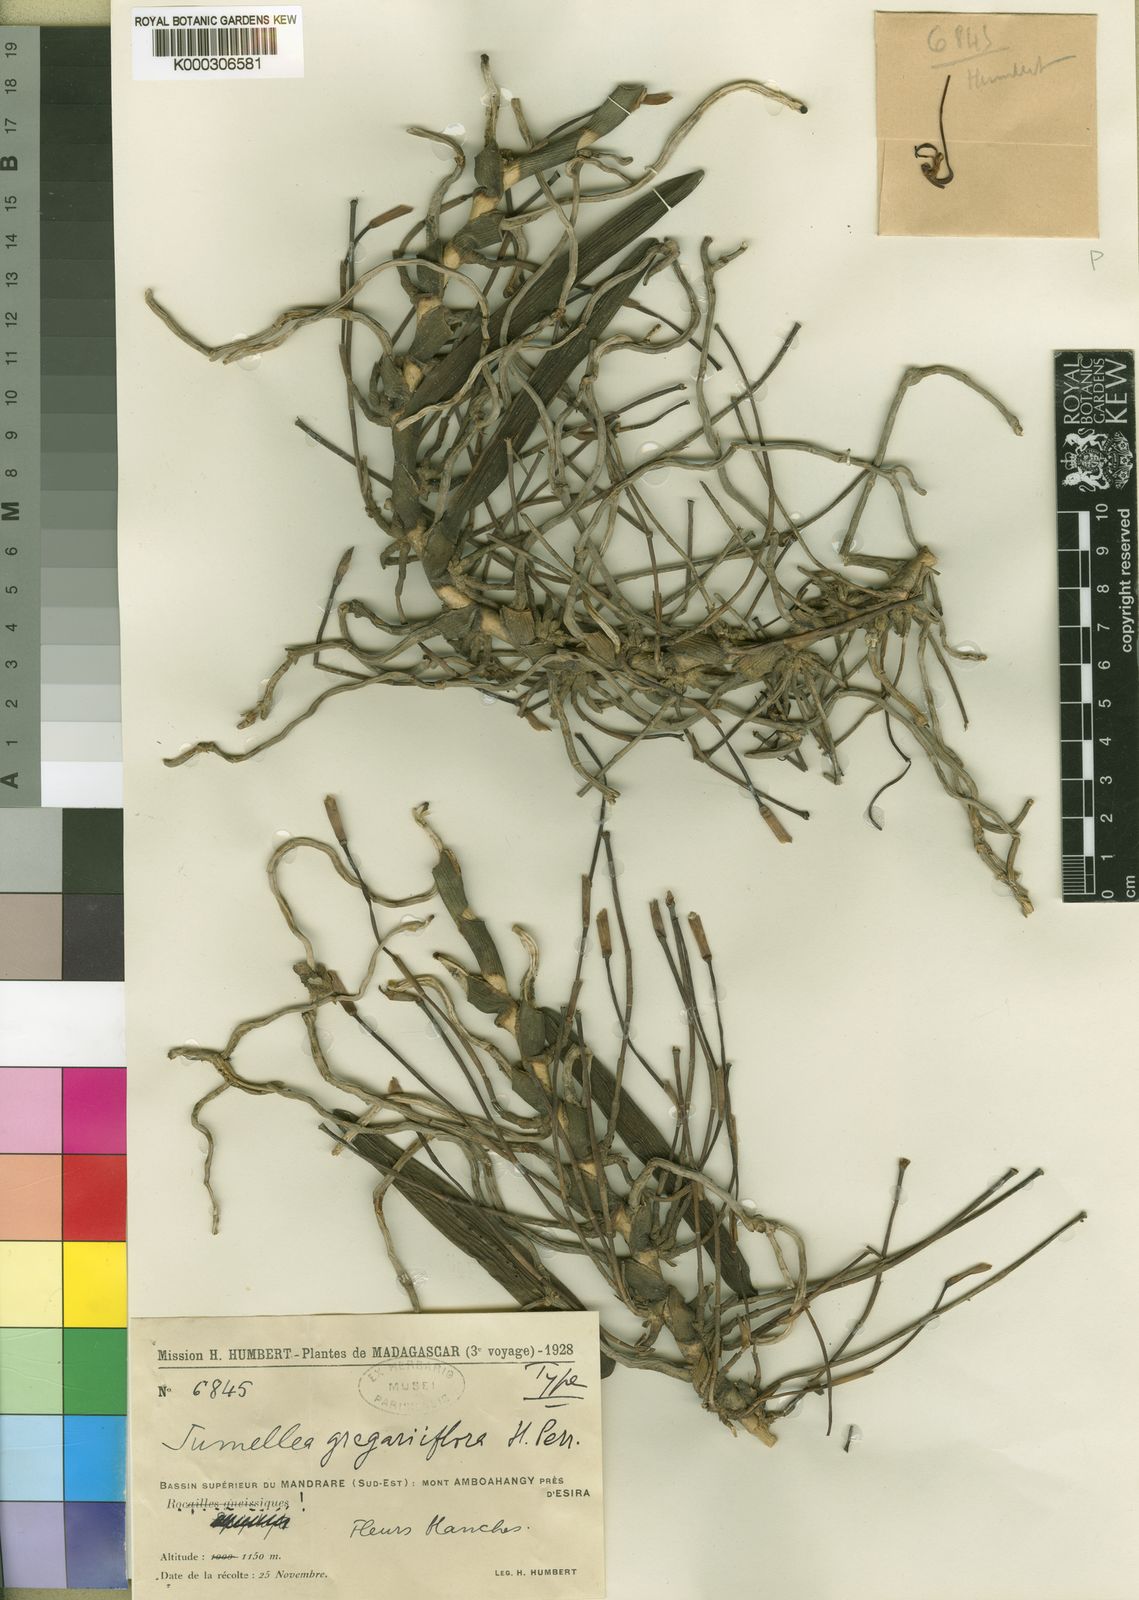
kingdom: Plantae
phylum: Tracheophyta
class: Liliopsida
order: Asparagales
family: Orchidaceae
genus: Jumellea
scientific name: Jumellea gregariiflora
